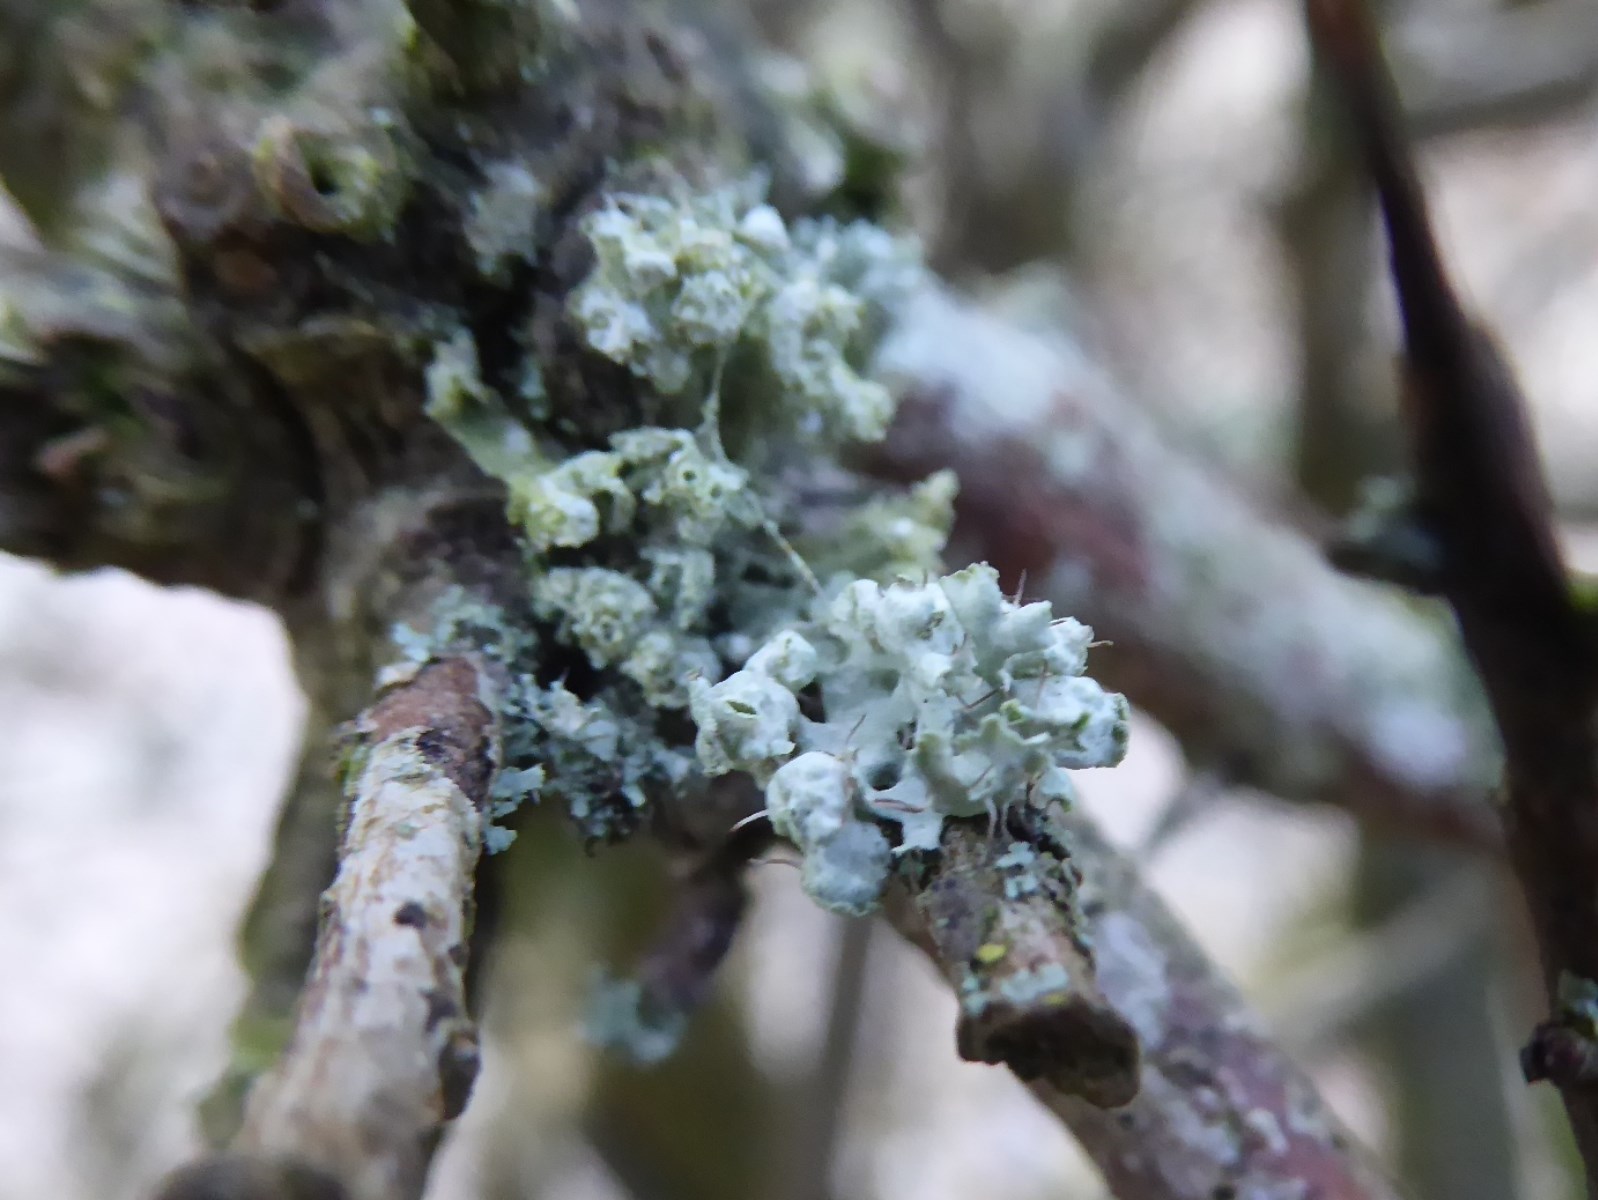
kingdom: Fungi
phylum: Ascomycota
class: Lecanoromycetes
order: Caliciales
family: Physciaceae
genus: Physcia
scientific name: Physcia adscendens
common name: hætte-rosetlav
